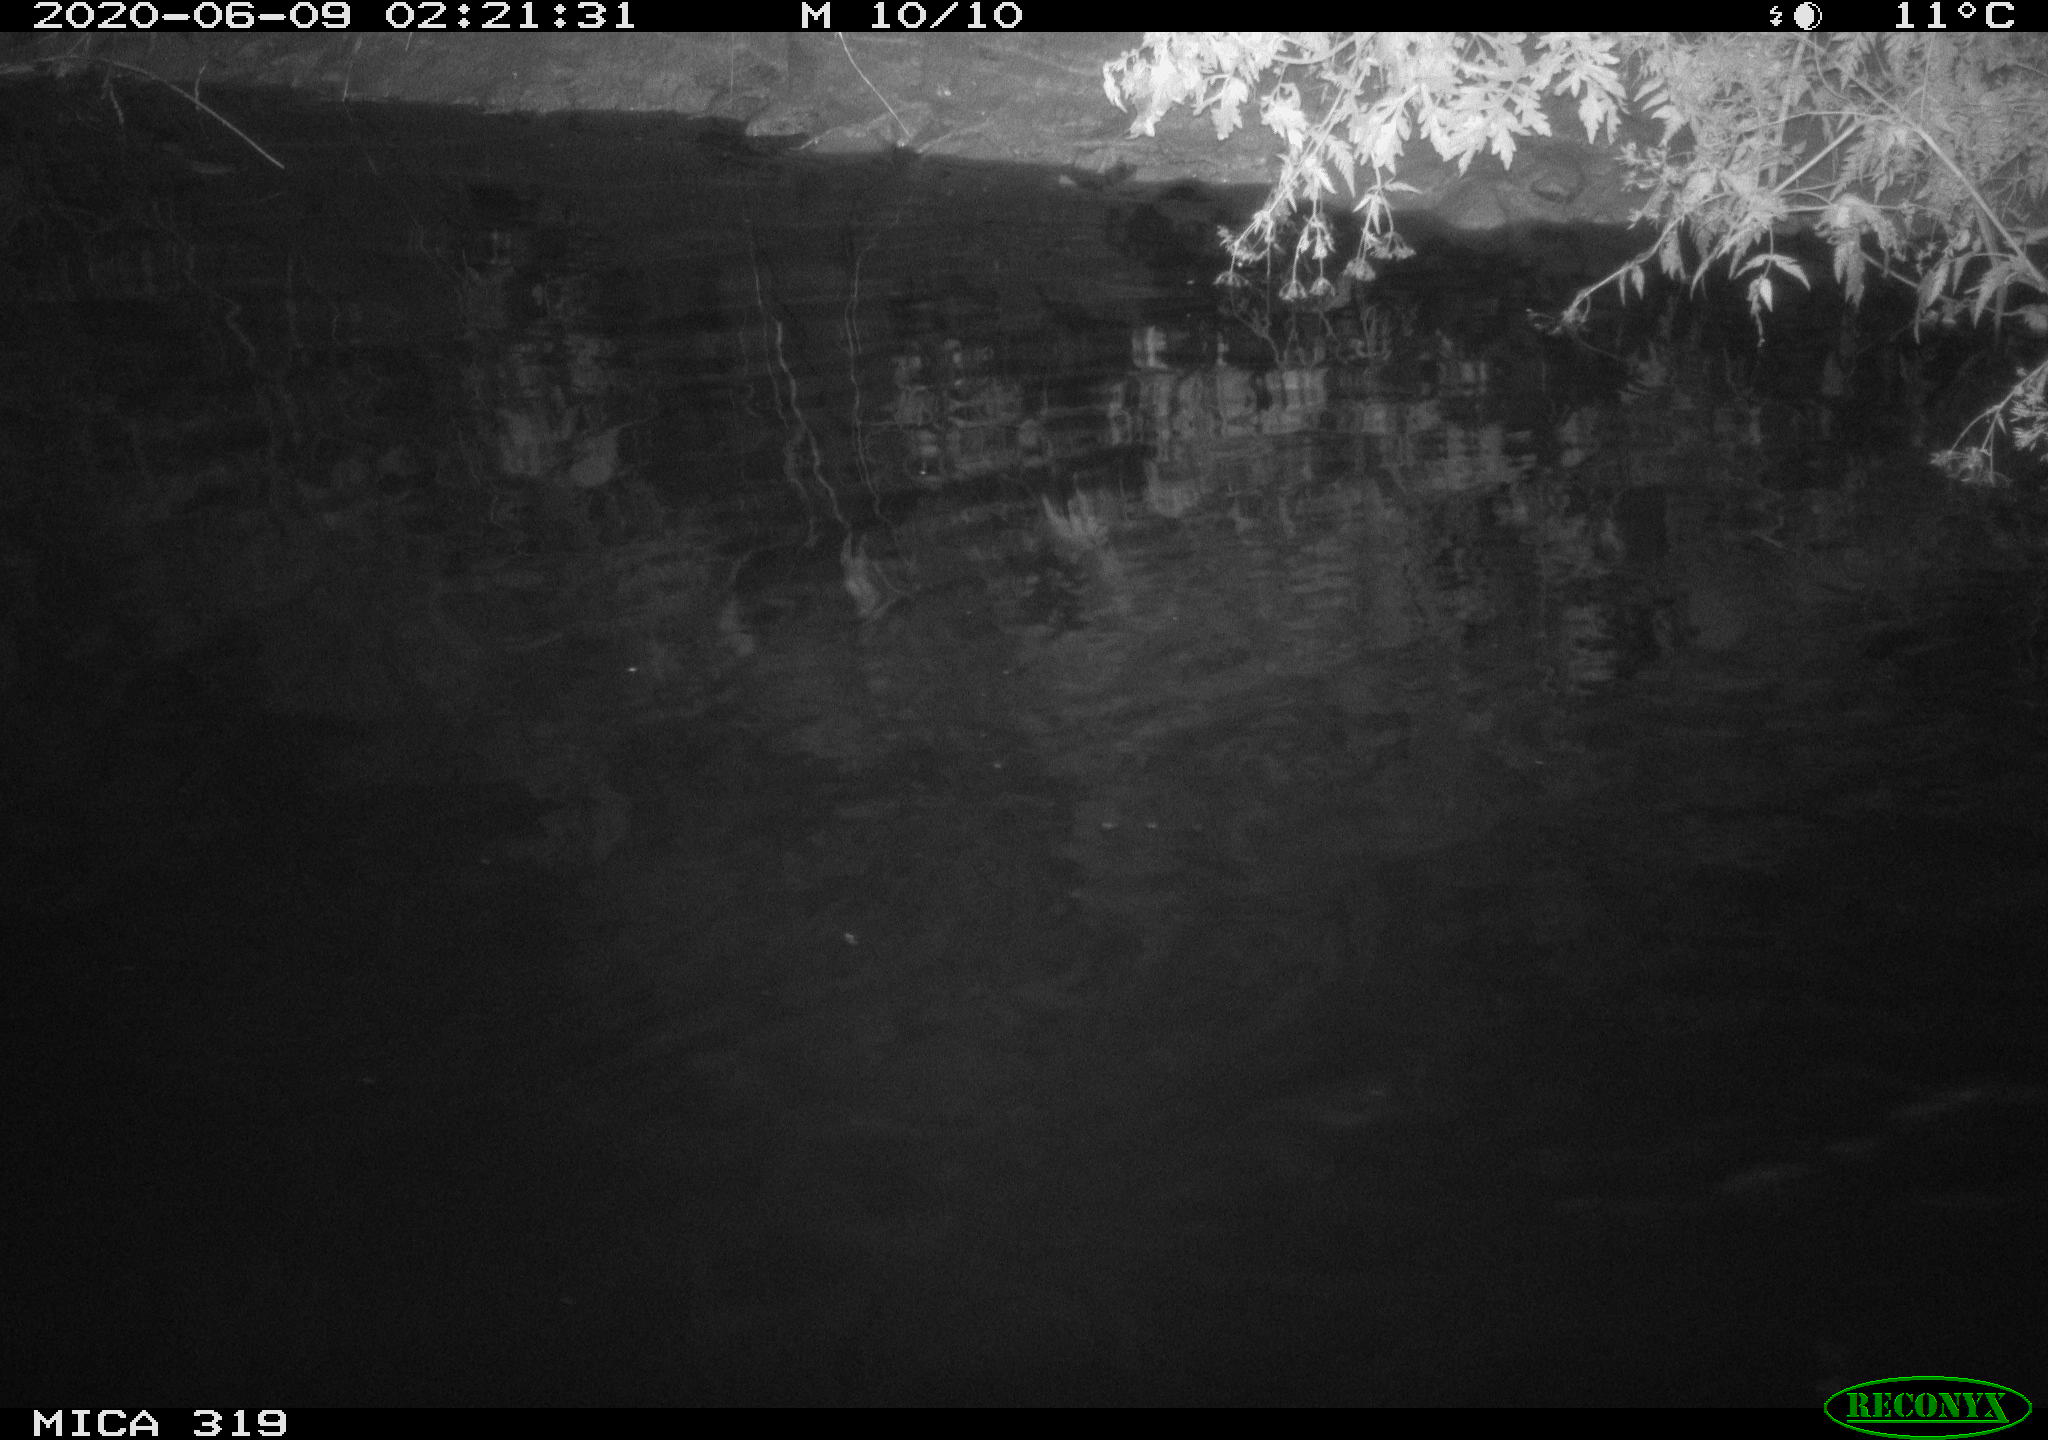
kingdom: Animalia
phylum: Chordata
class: Aves
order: Anseriformes
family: Anatidae
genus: Anas
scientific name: Anas platyrhynchos
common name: Mallard
